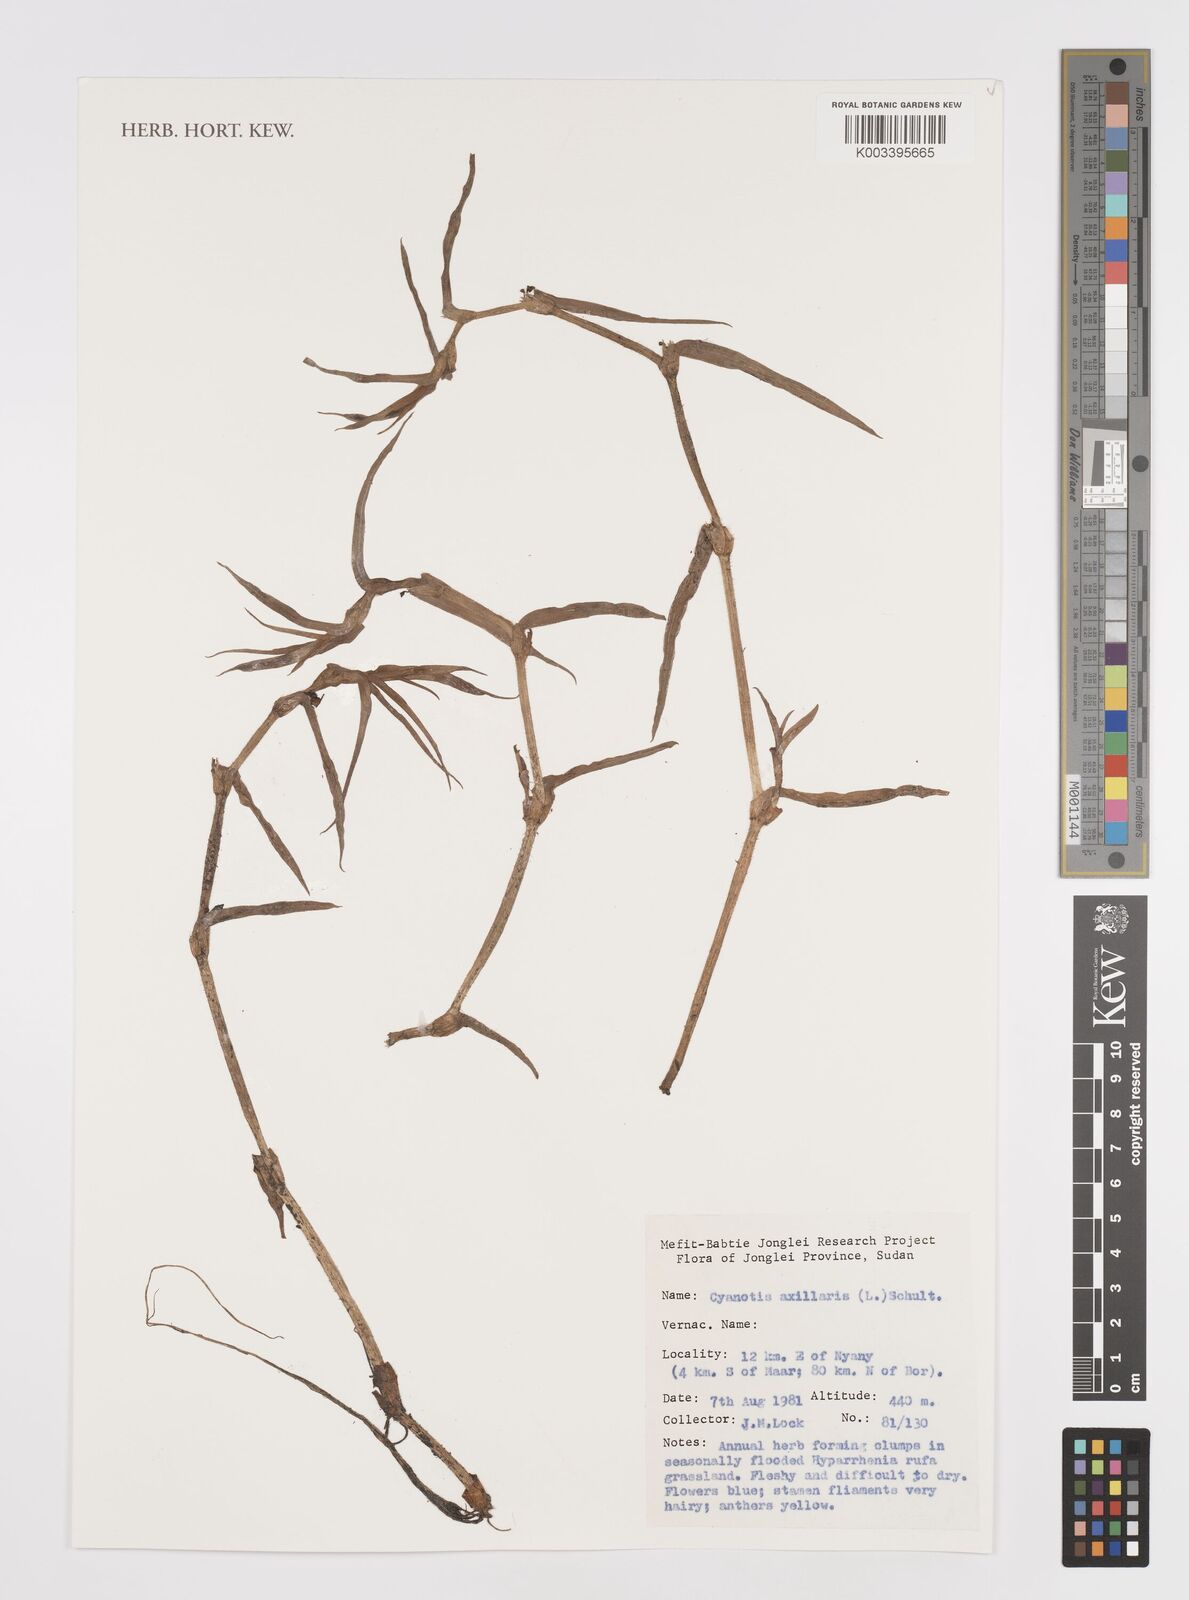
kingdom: Plantae
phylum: Tracheophyta
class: Liliopsida
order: Commelinales
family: Commelinaceae
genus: Cyanotis
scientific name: Cyanotis axillaris
